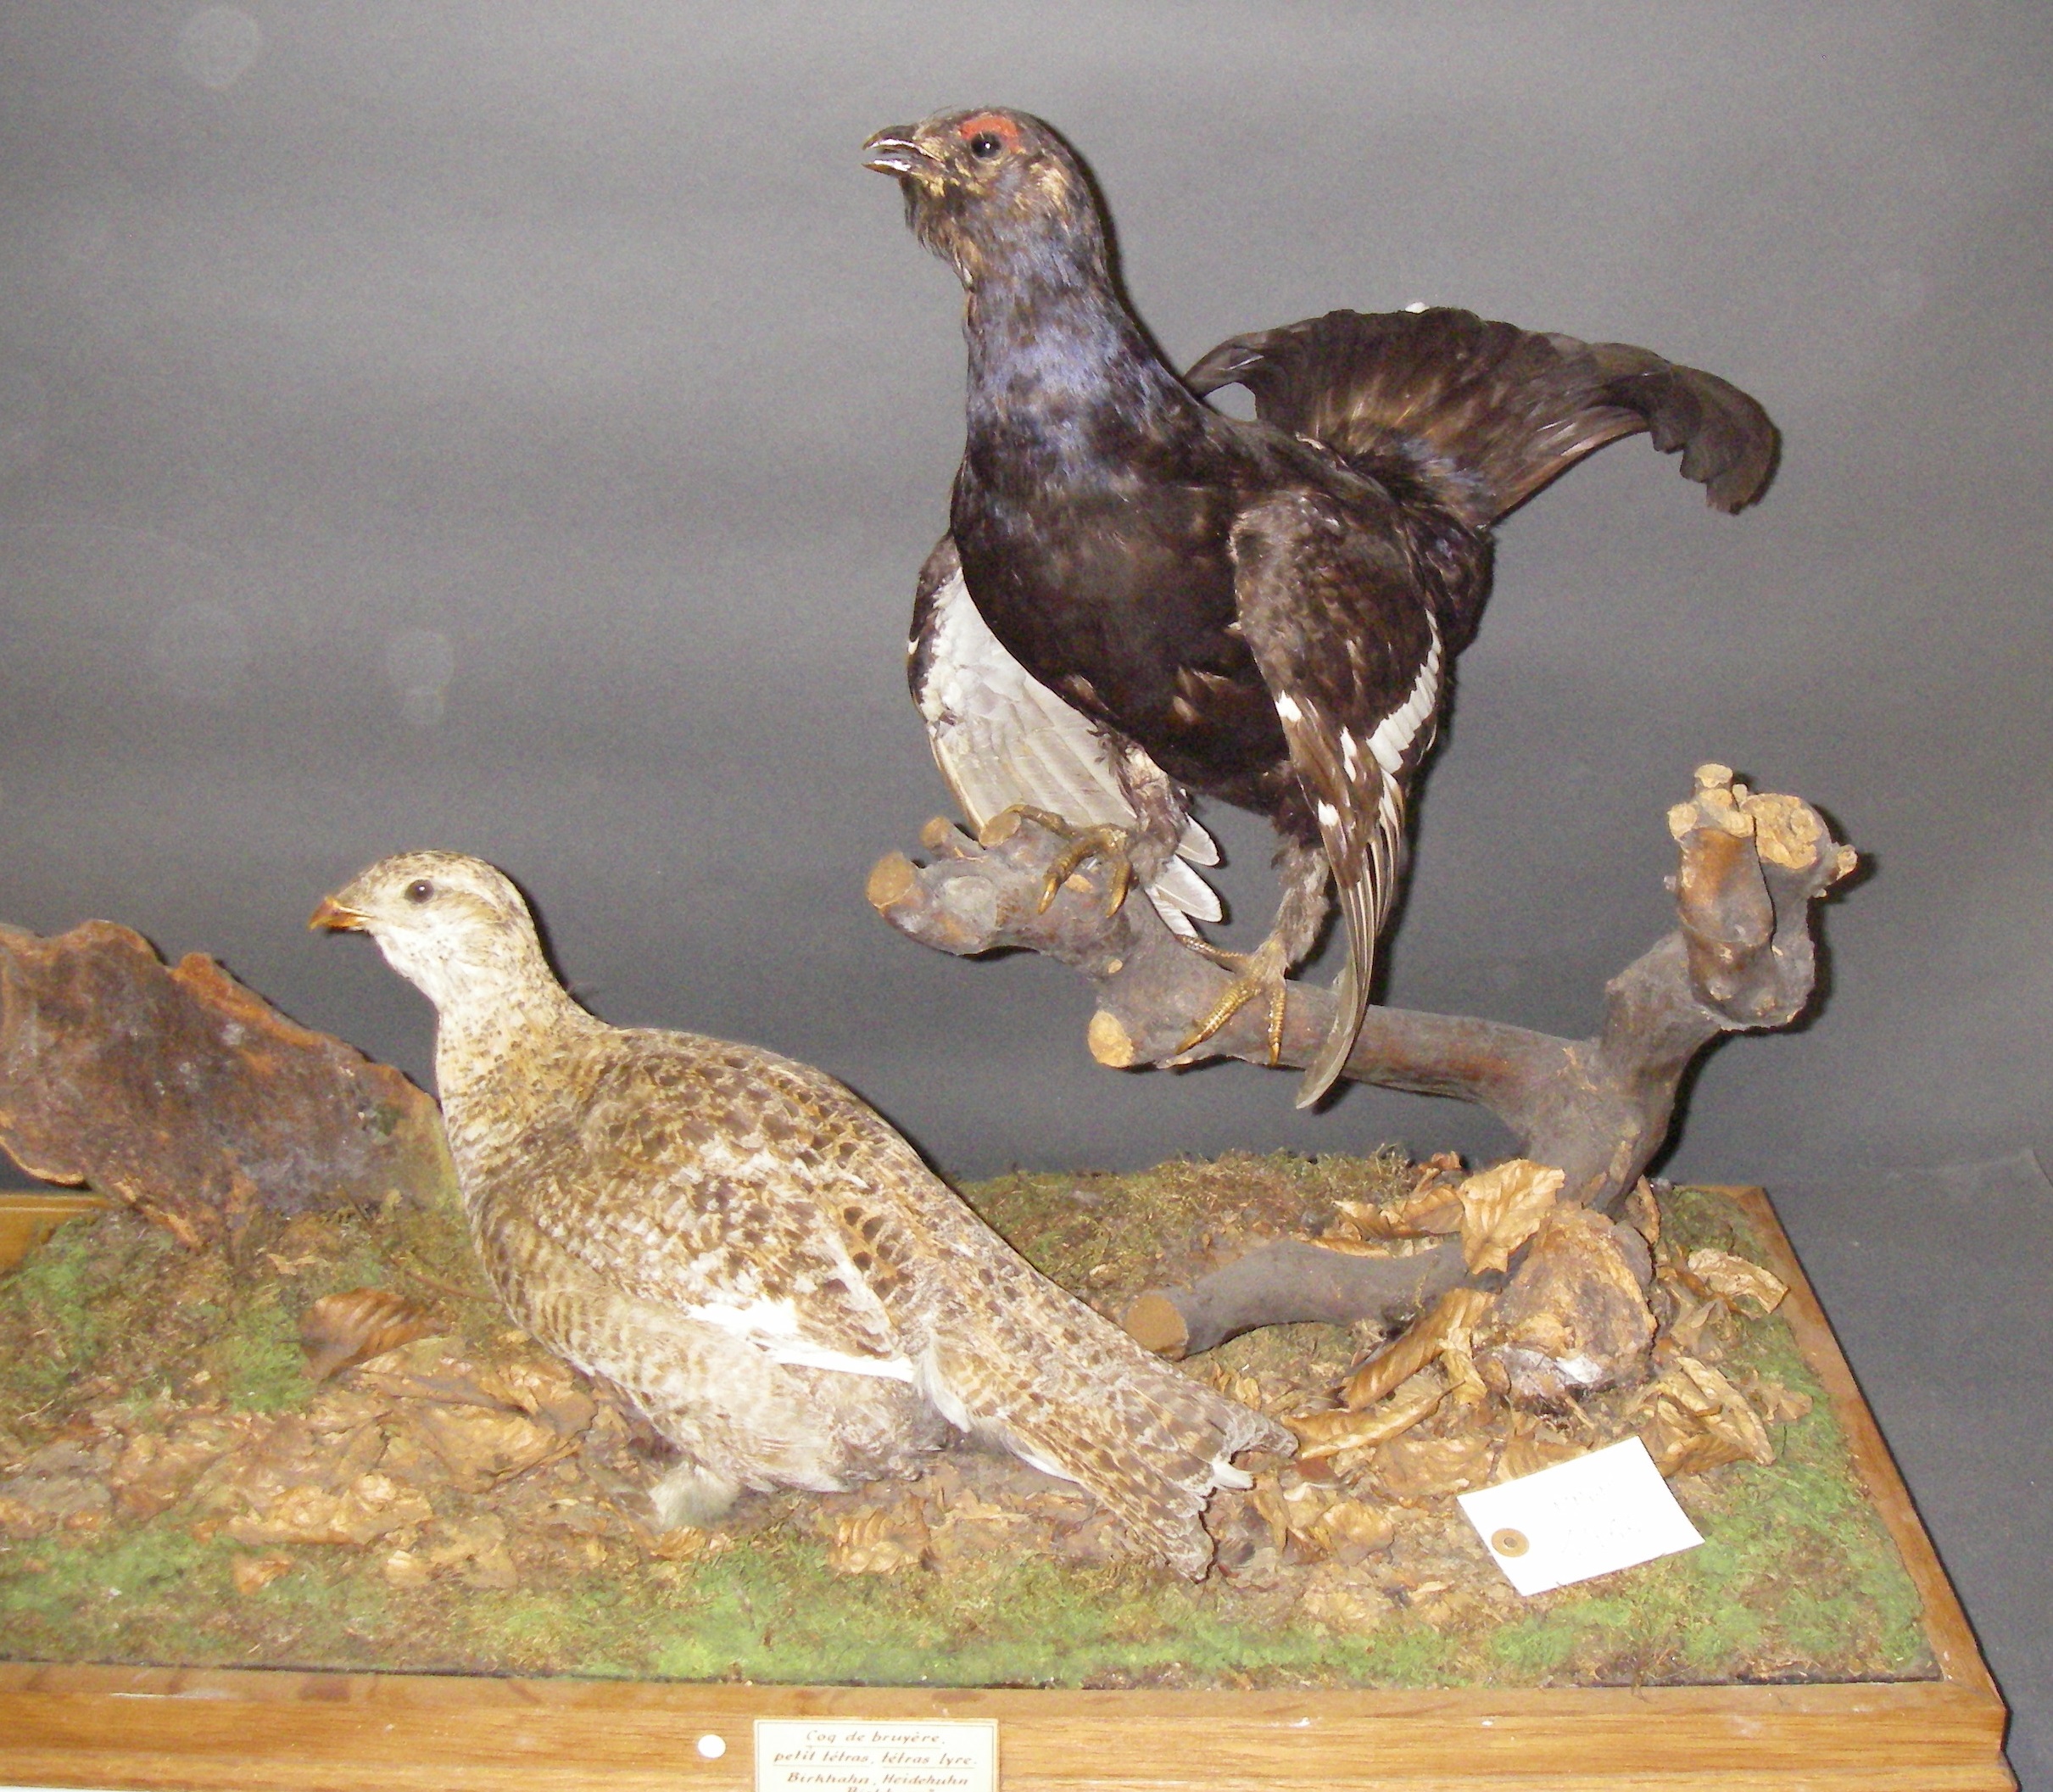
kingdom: Animalia
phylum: Chordata
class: Aves
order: Galliformes
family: Phasianidae
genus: Lyrurus
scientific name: Lyrurus tetrix
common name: Black grouse
